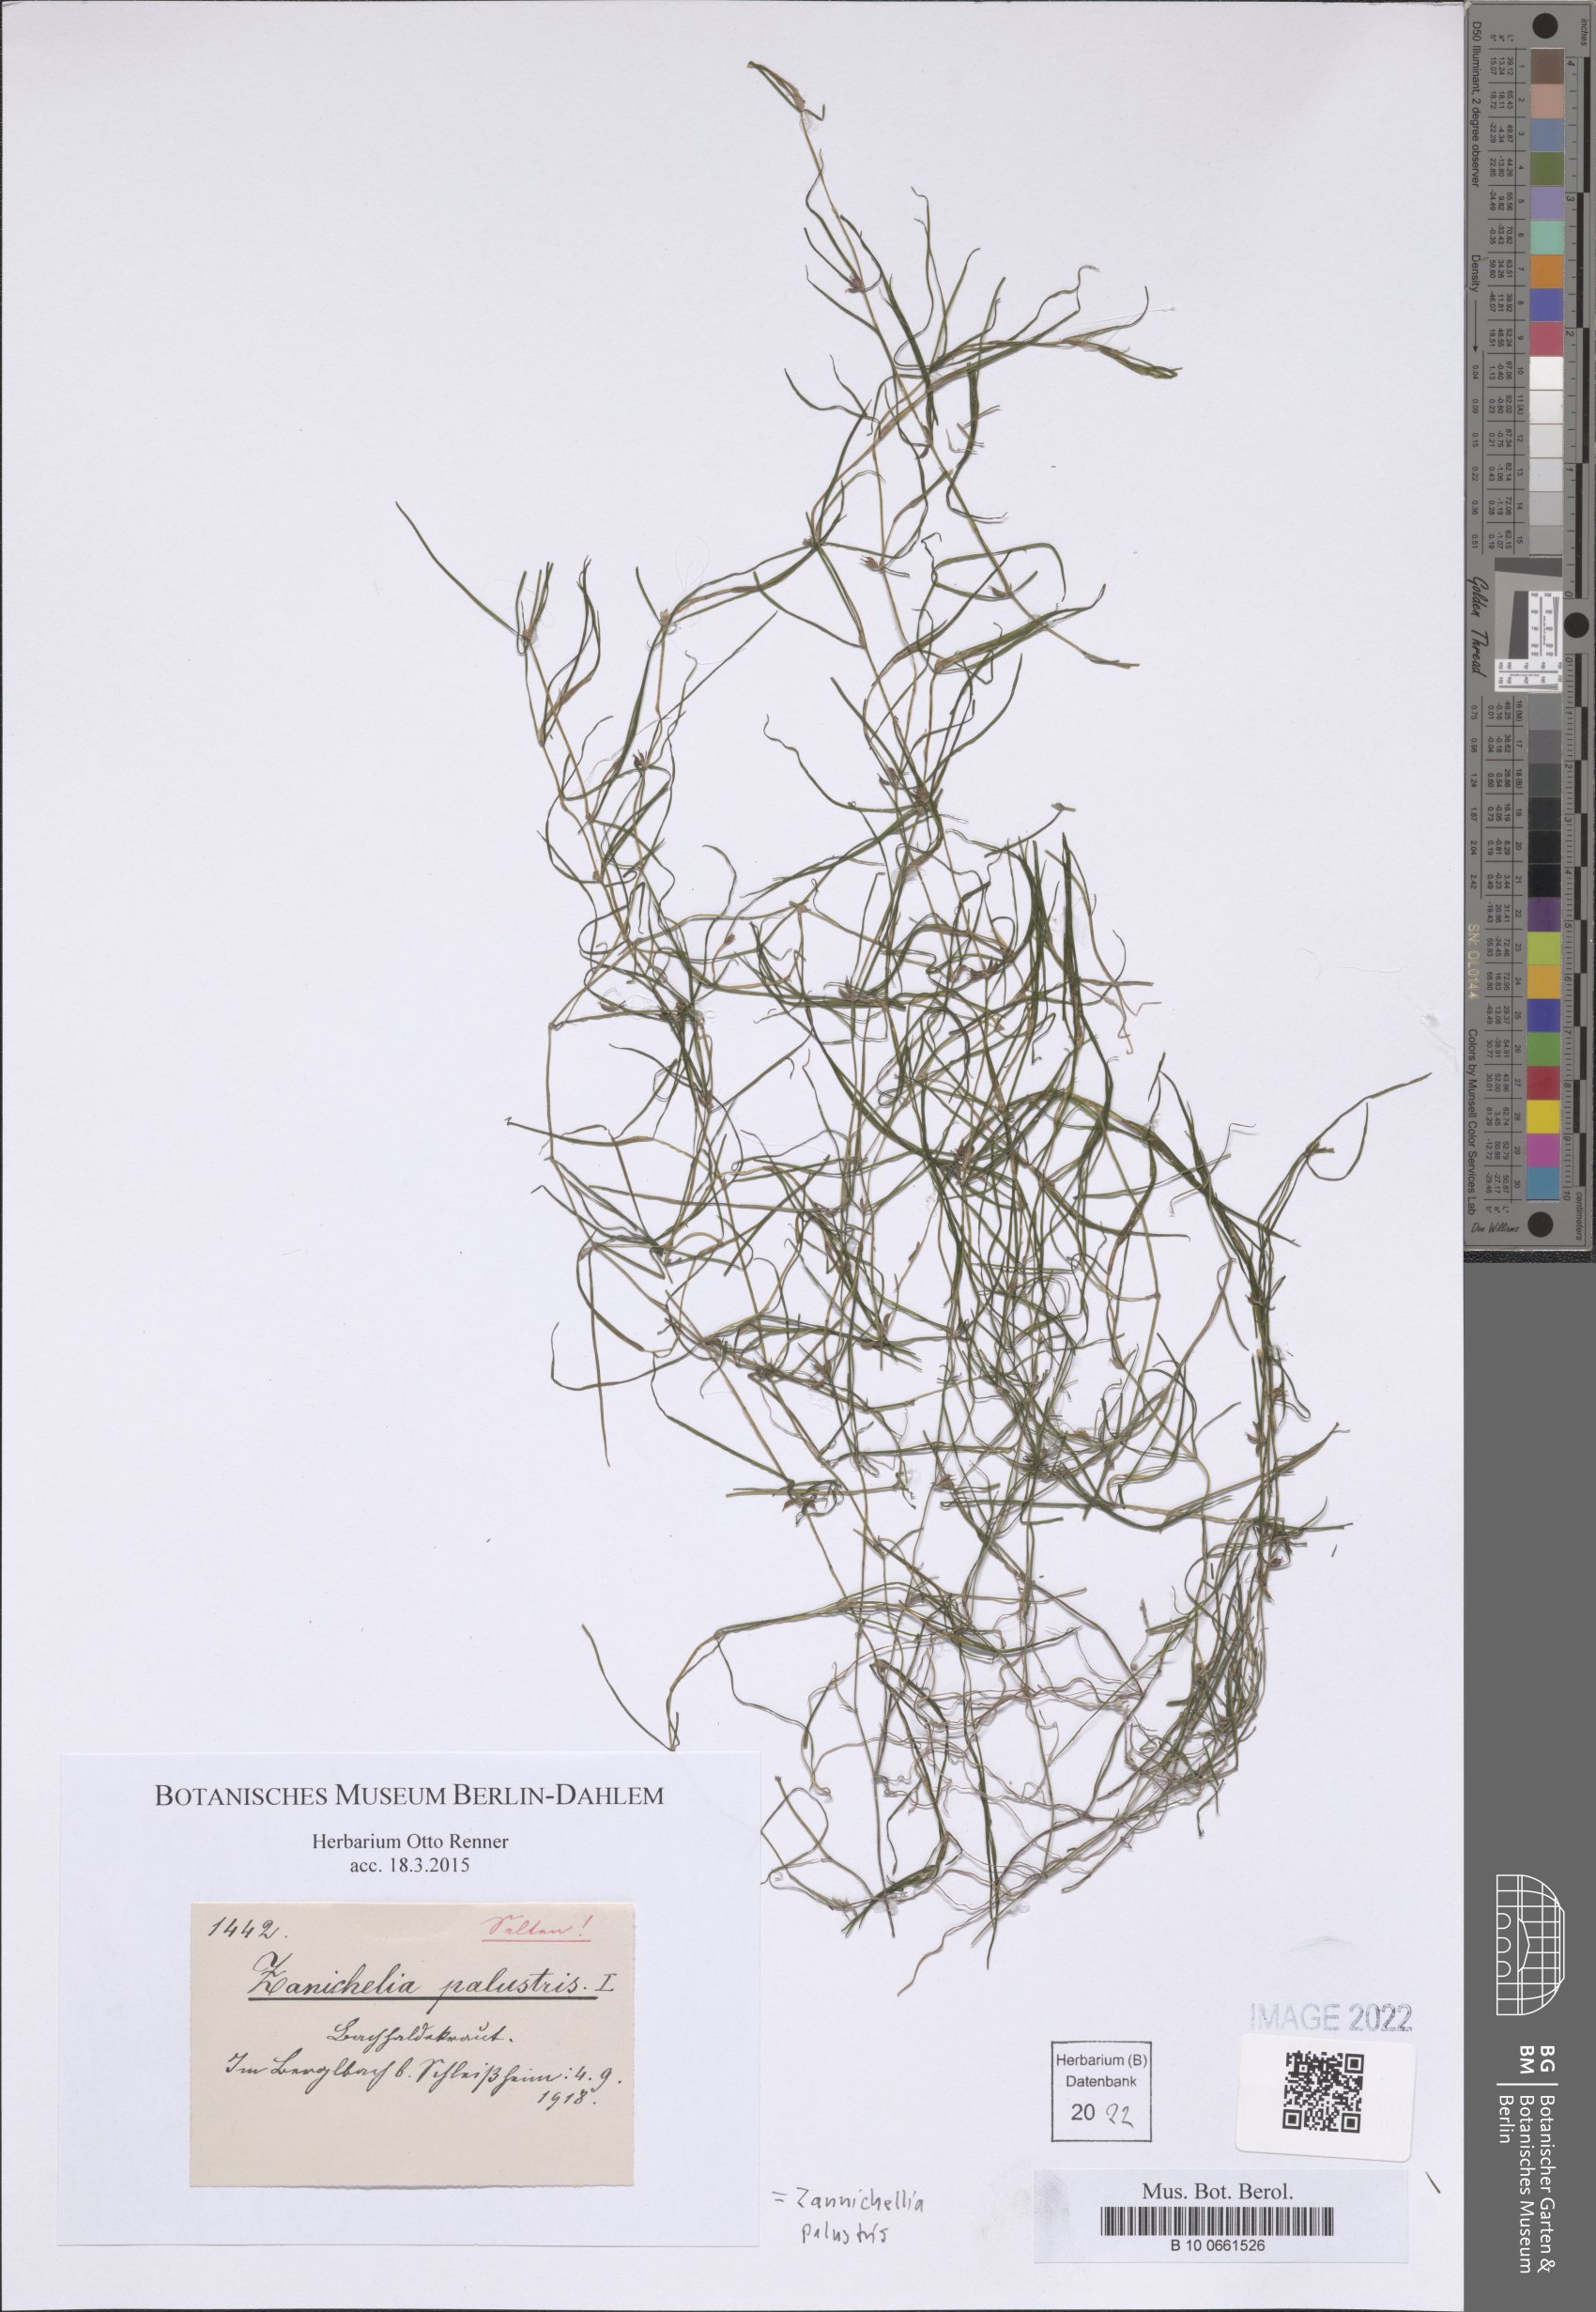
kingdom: Plantae
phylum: Tracheophyta
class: Liliopsida
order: Alismatales
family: Potamogetonaceae
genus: Zannichellia
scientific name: Zannichellia palustris
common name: Horned pondweed
